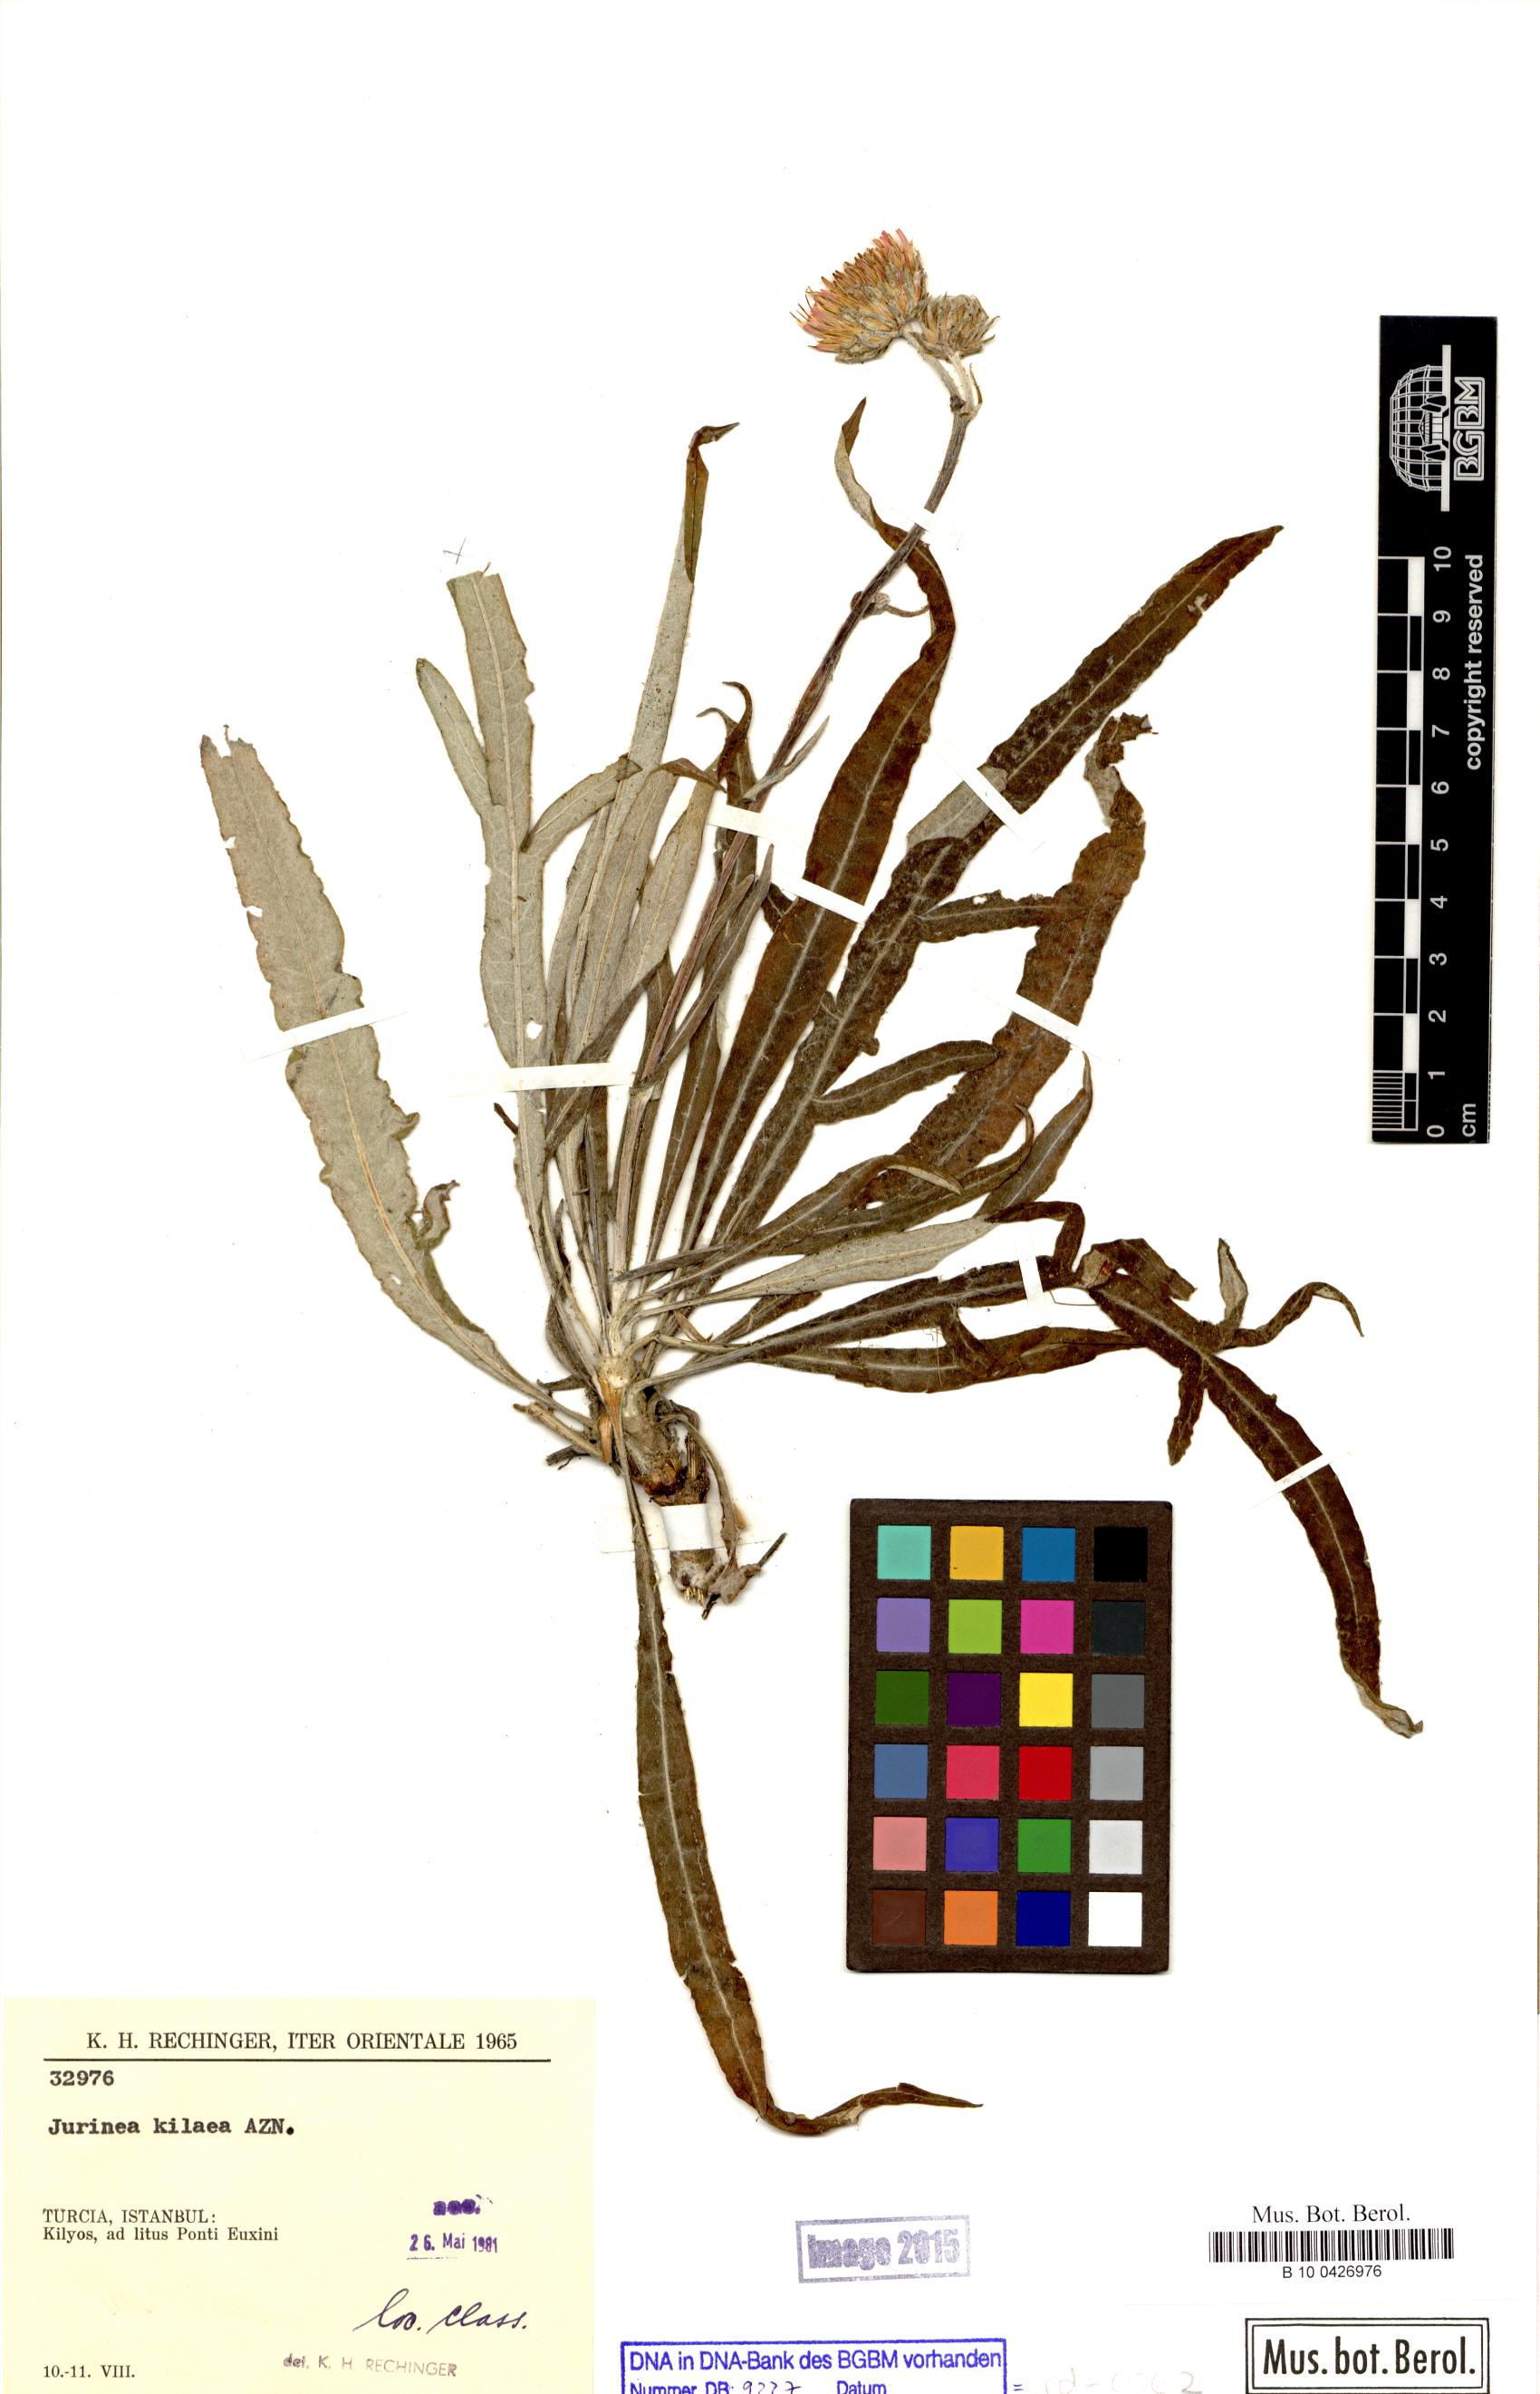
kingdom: Plantae
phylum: Tracheophyta
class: Magnoliopsida
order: Asterales
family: Asteraceae
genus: Jurinea
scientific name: Jurinea kilaea
